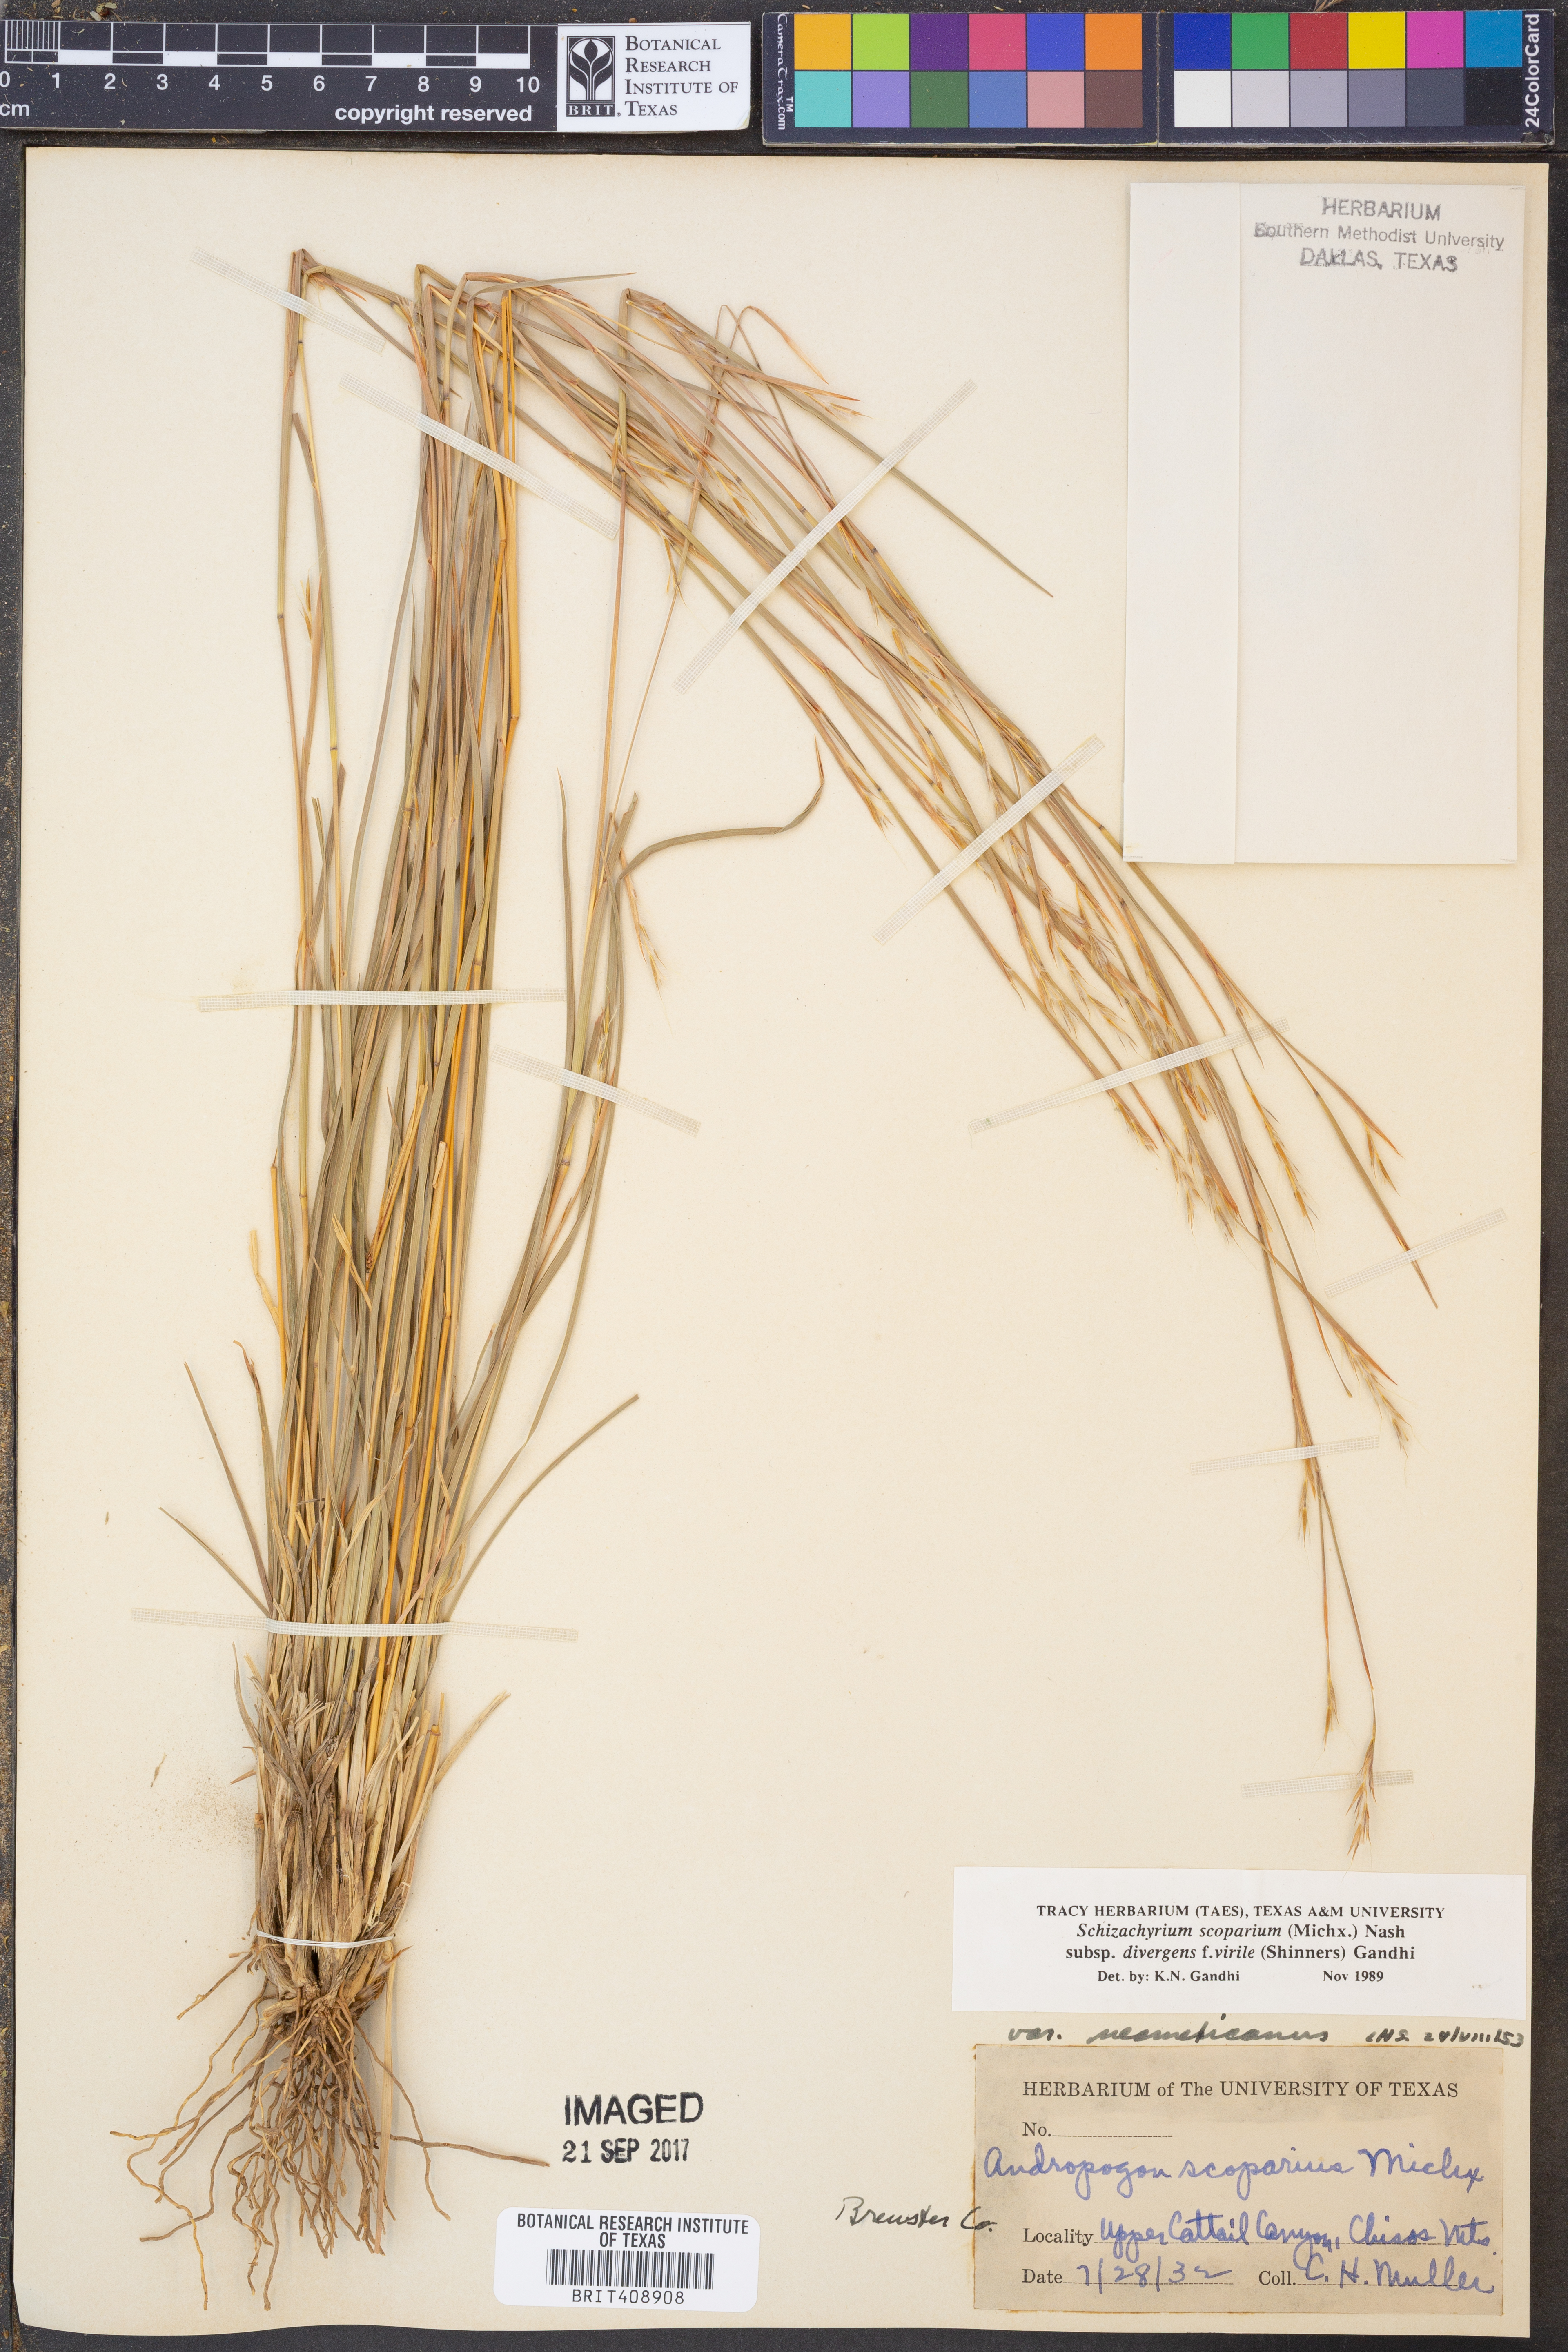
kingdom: Plantae
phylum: Tracheophyta
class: Liliopsida
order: Poales
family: Poaceae
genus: Schizachyrium
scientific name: Schizachyrium scoparium
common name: Little bluestem
